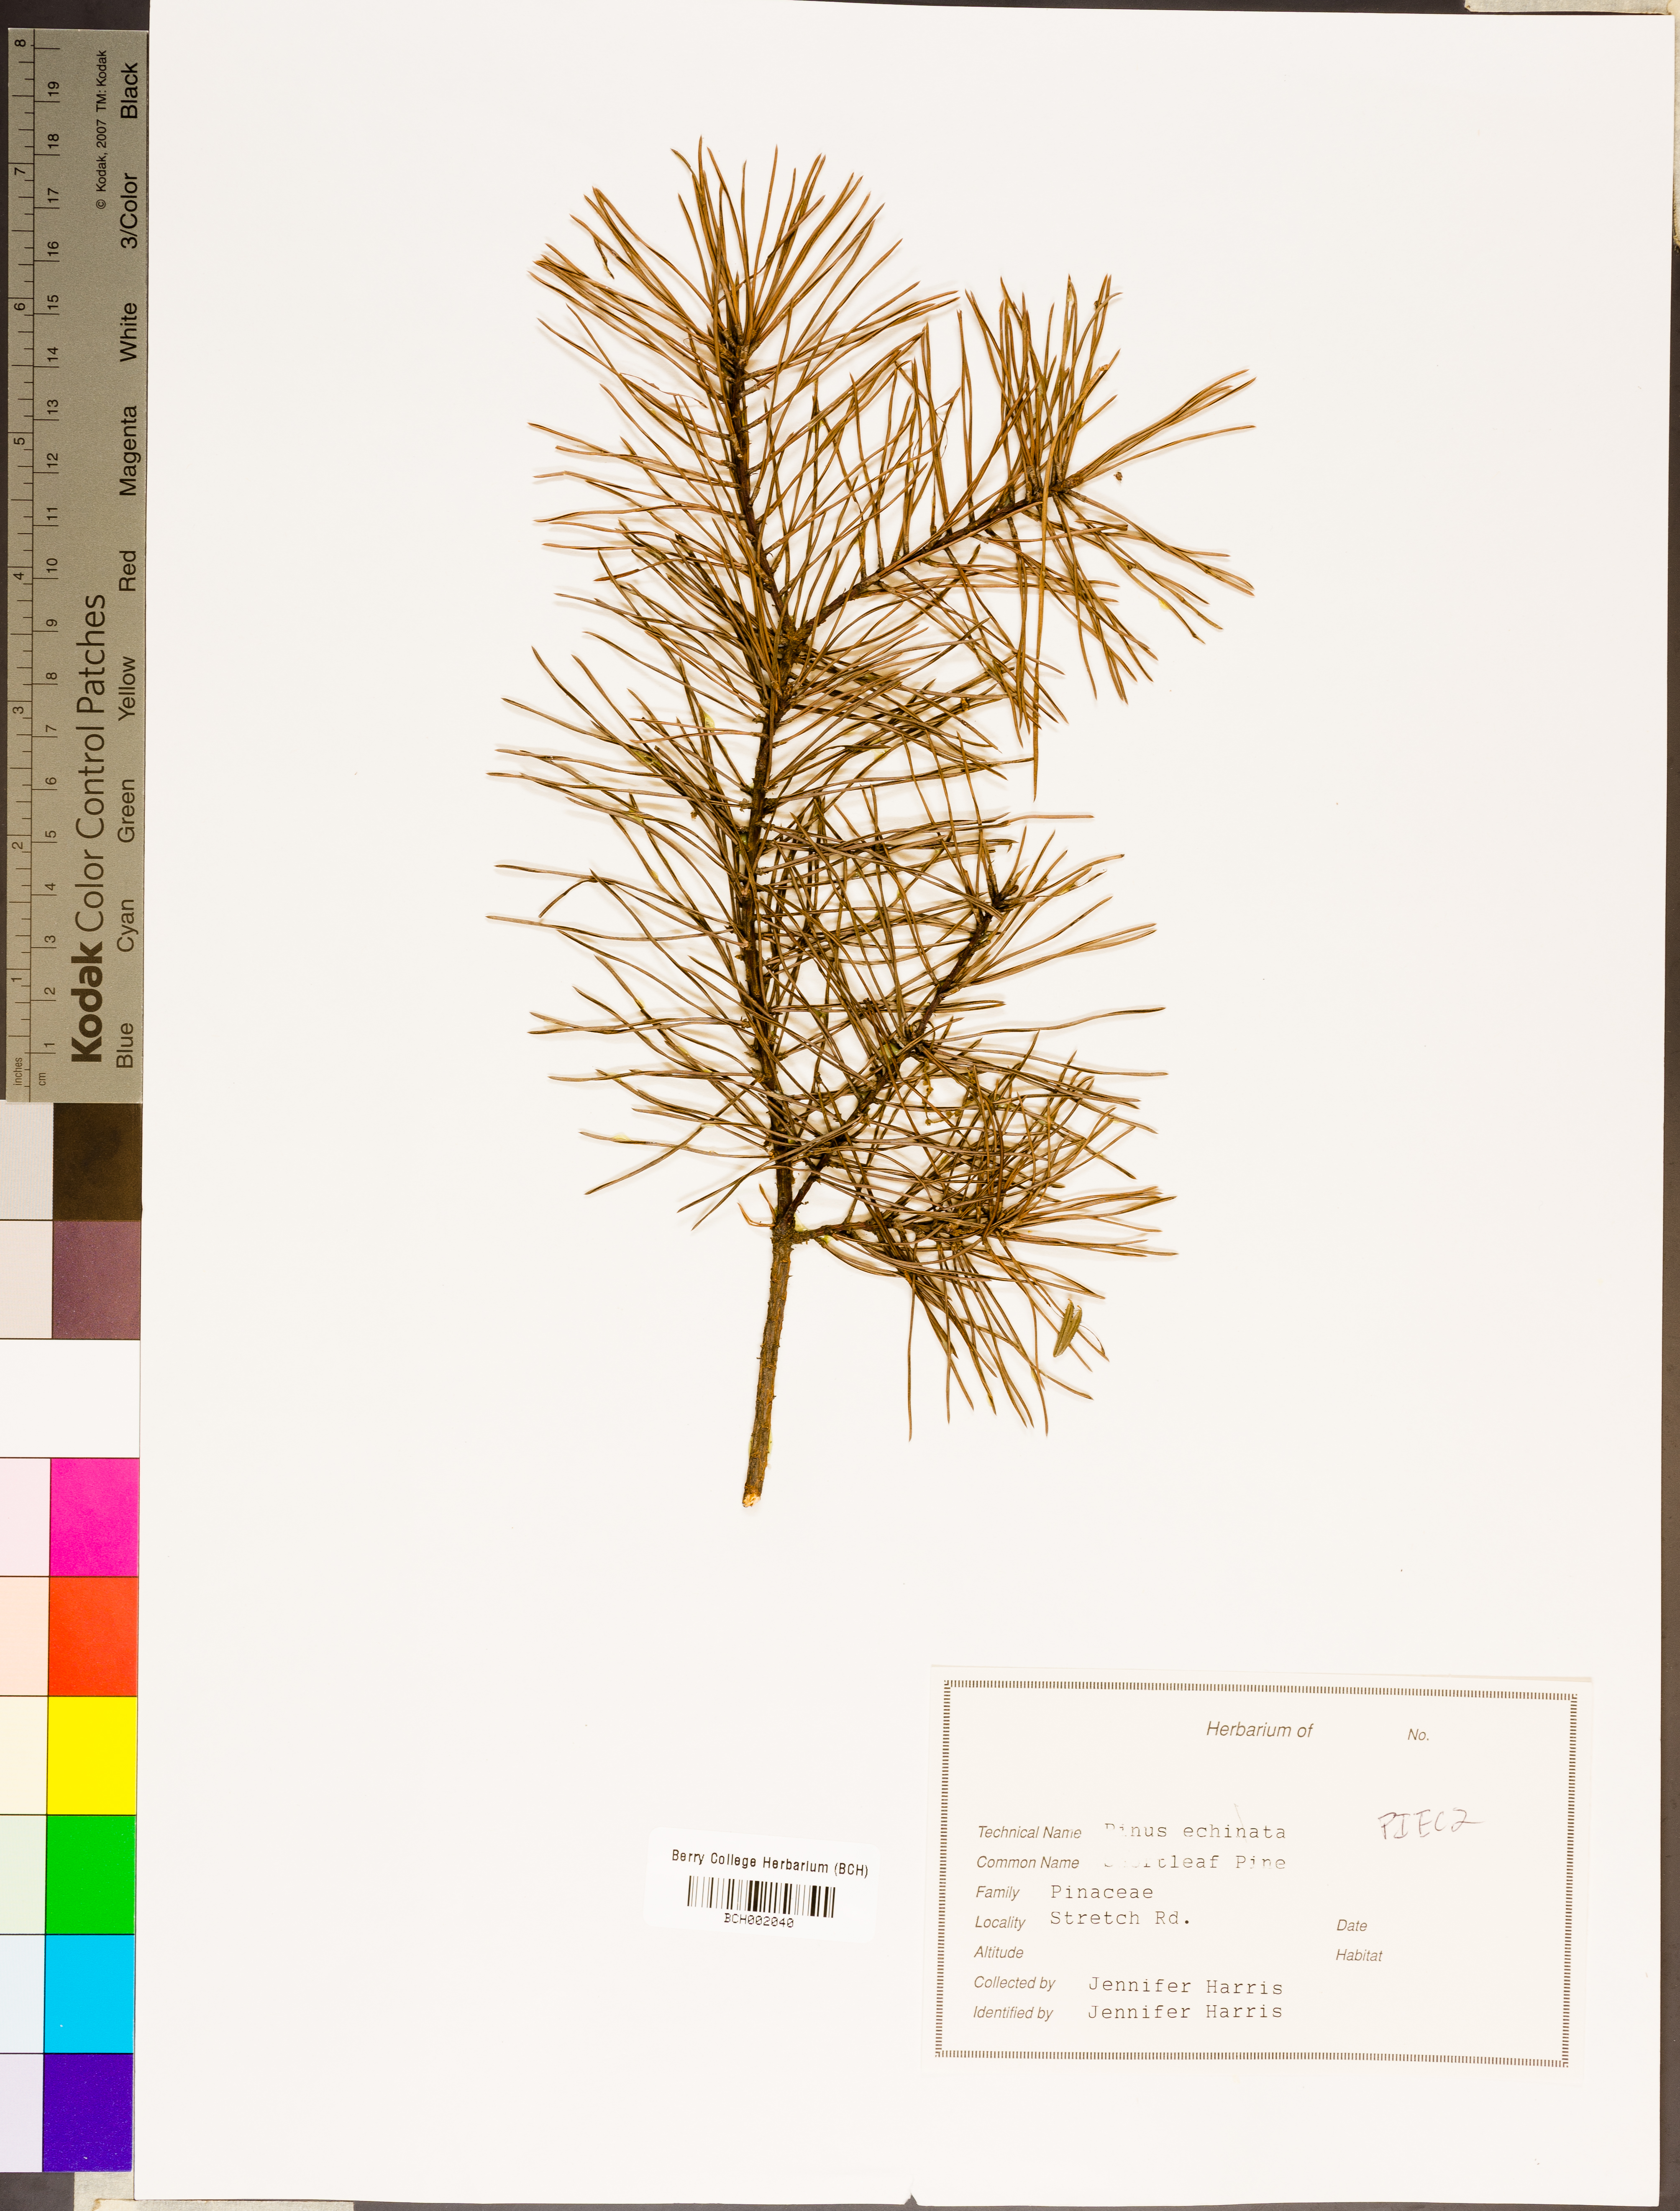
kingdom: Plantae
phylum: Tracheophyta
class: Pinopsida
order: Pinales
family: Pinaceae
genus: Pinus
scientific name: Pinus echinata
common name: Shortleaf pine
